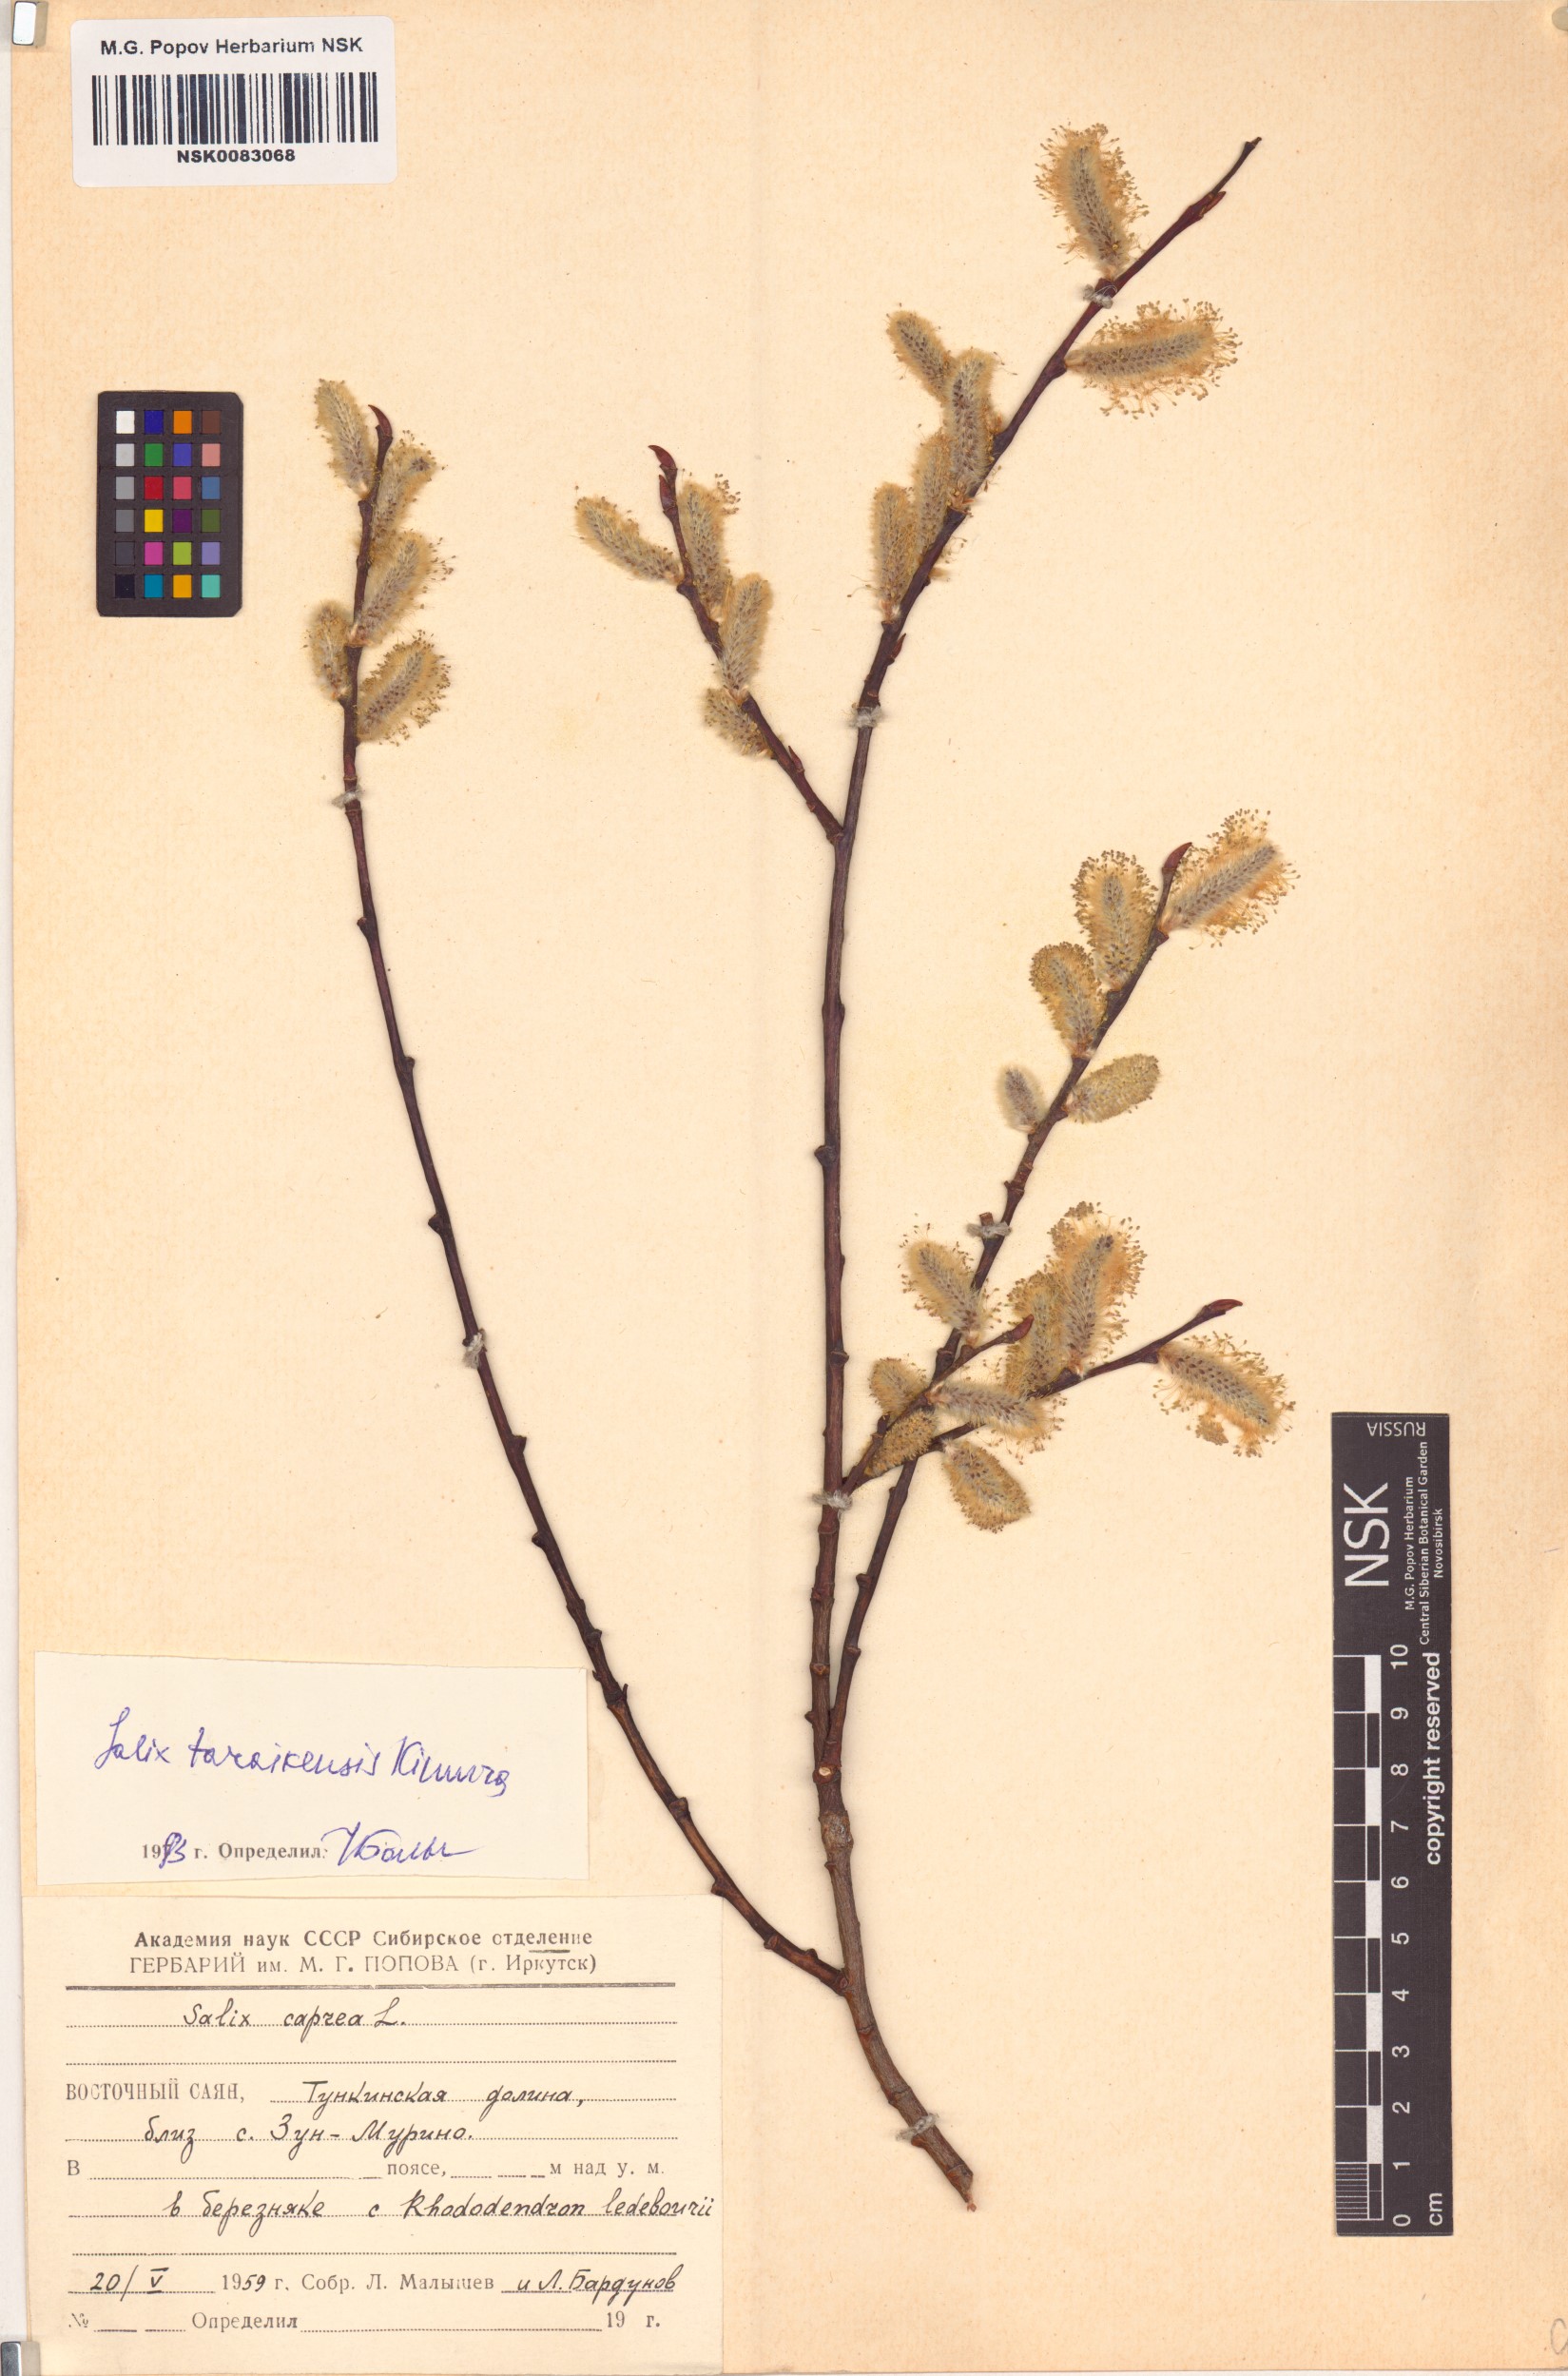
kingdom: Plantae
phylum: Tracheophyta
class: Magnoliopsida
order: Malpighiales
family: Salicaceae
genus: Salix
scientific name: Salix taraikensis
